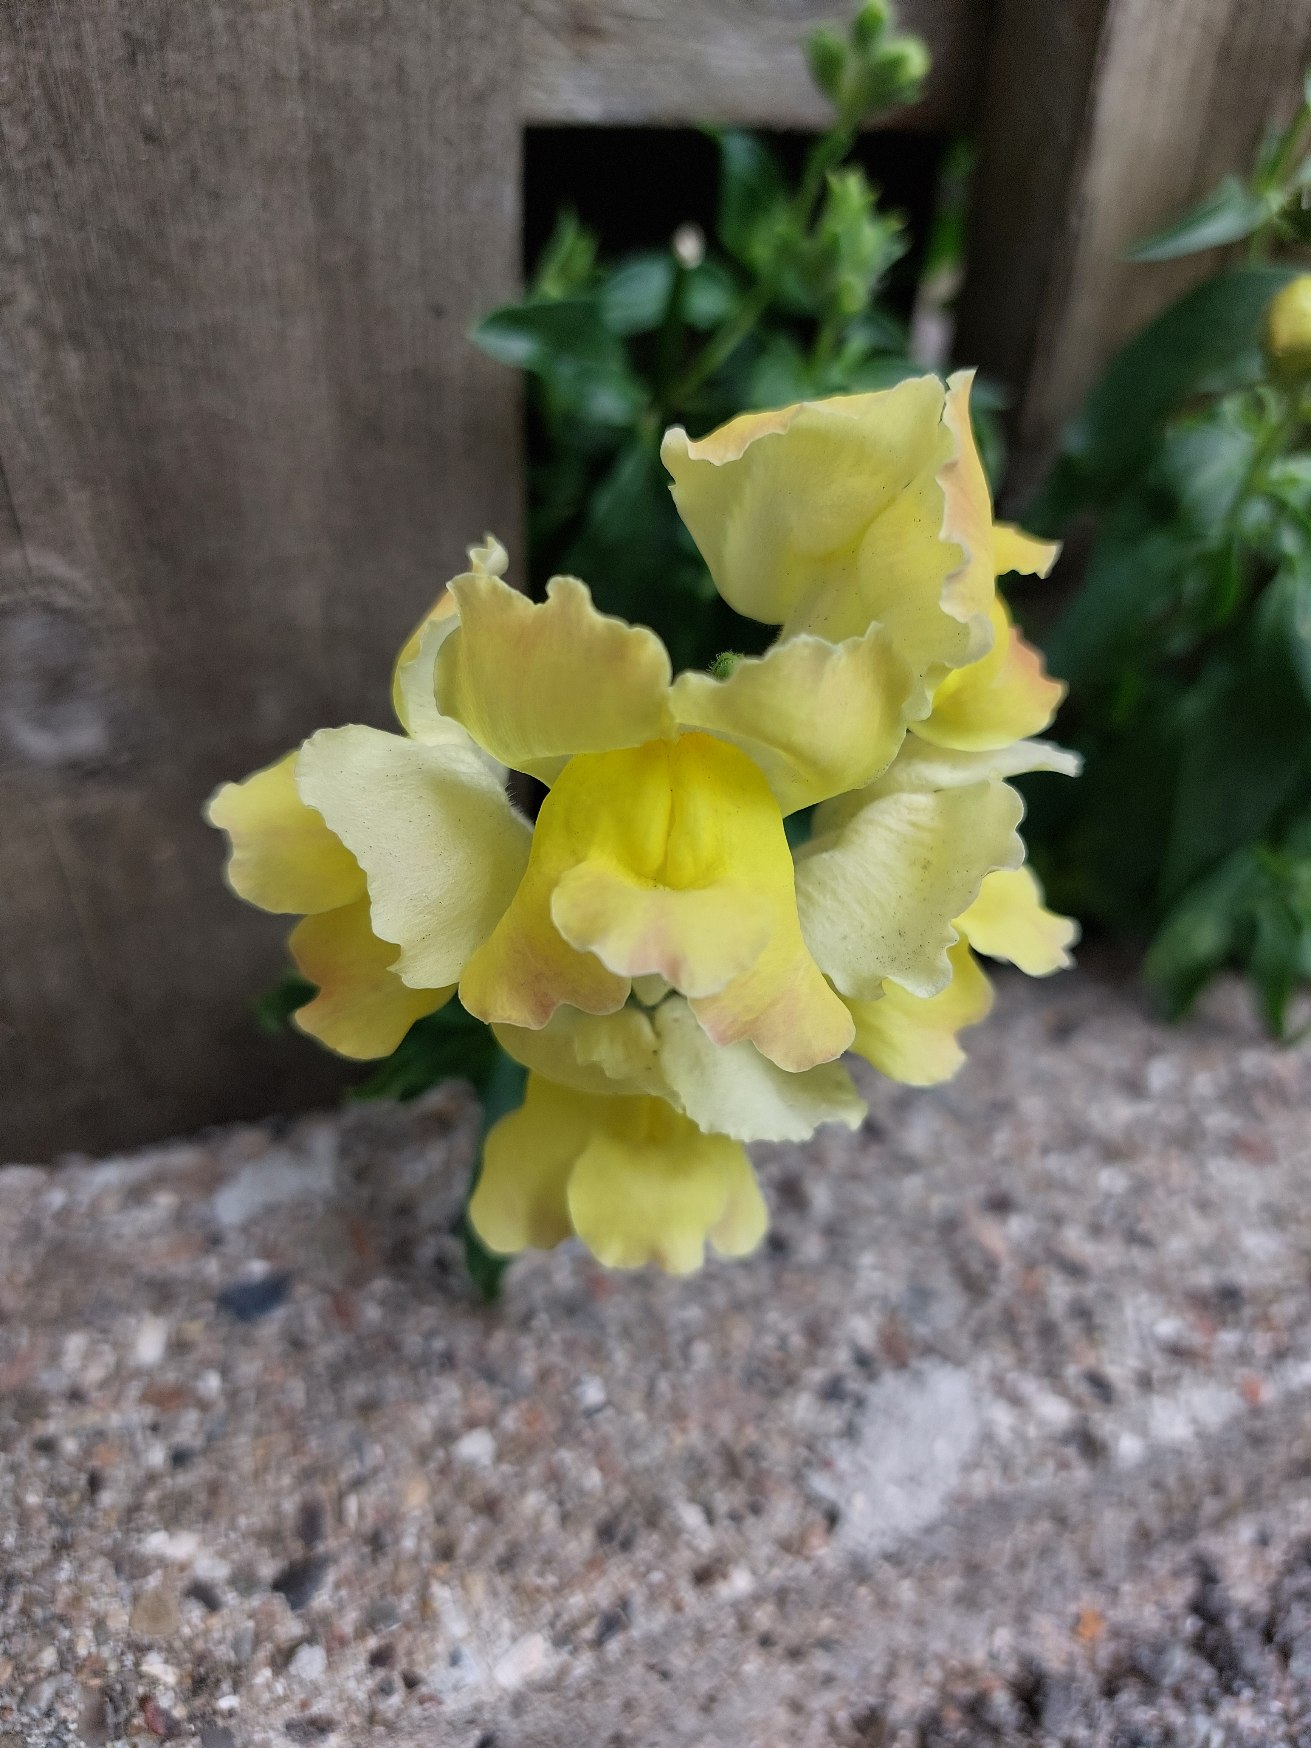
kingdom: Plantae
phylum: Tracheophyta
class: Magnoliopsida
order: Lamiales
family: Plantaginaceae
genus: Linaria
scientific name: Linaria vulgaris
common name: Almindelig torskemund
